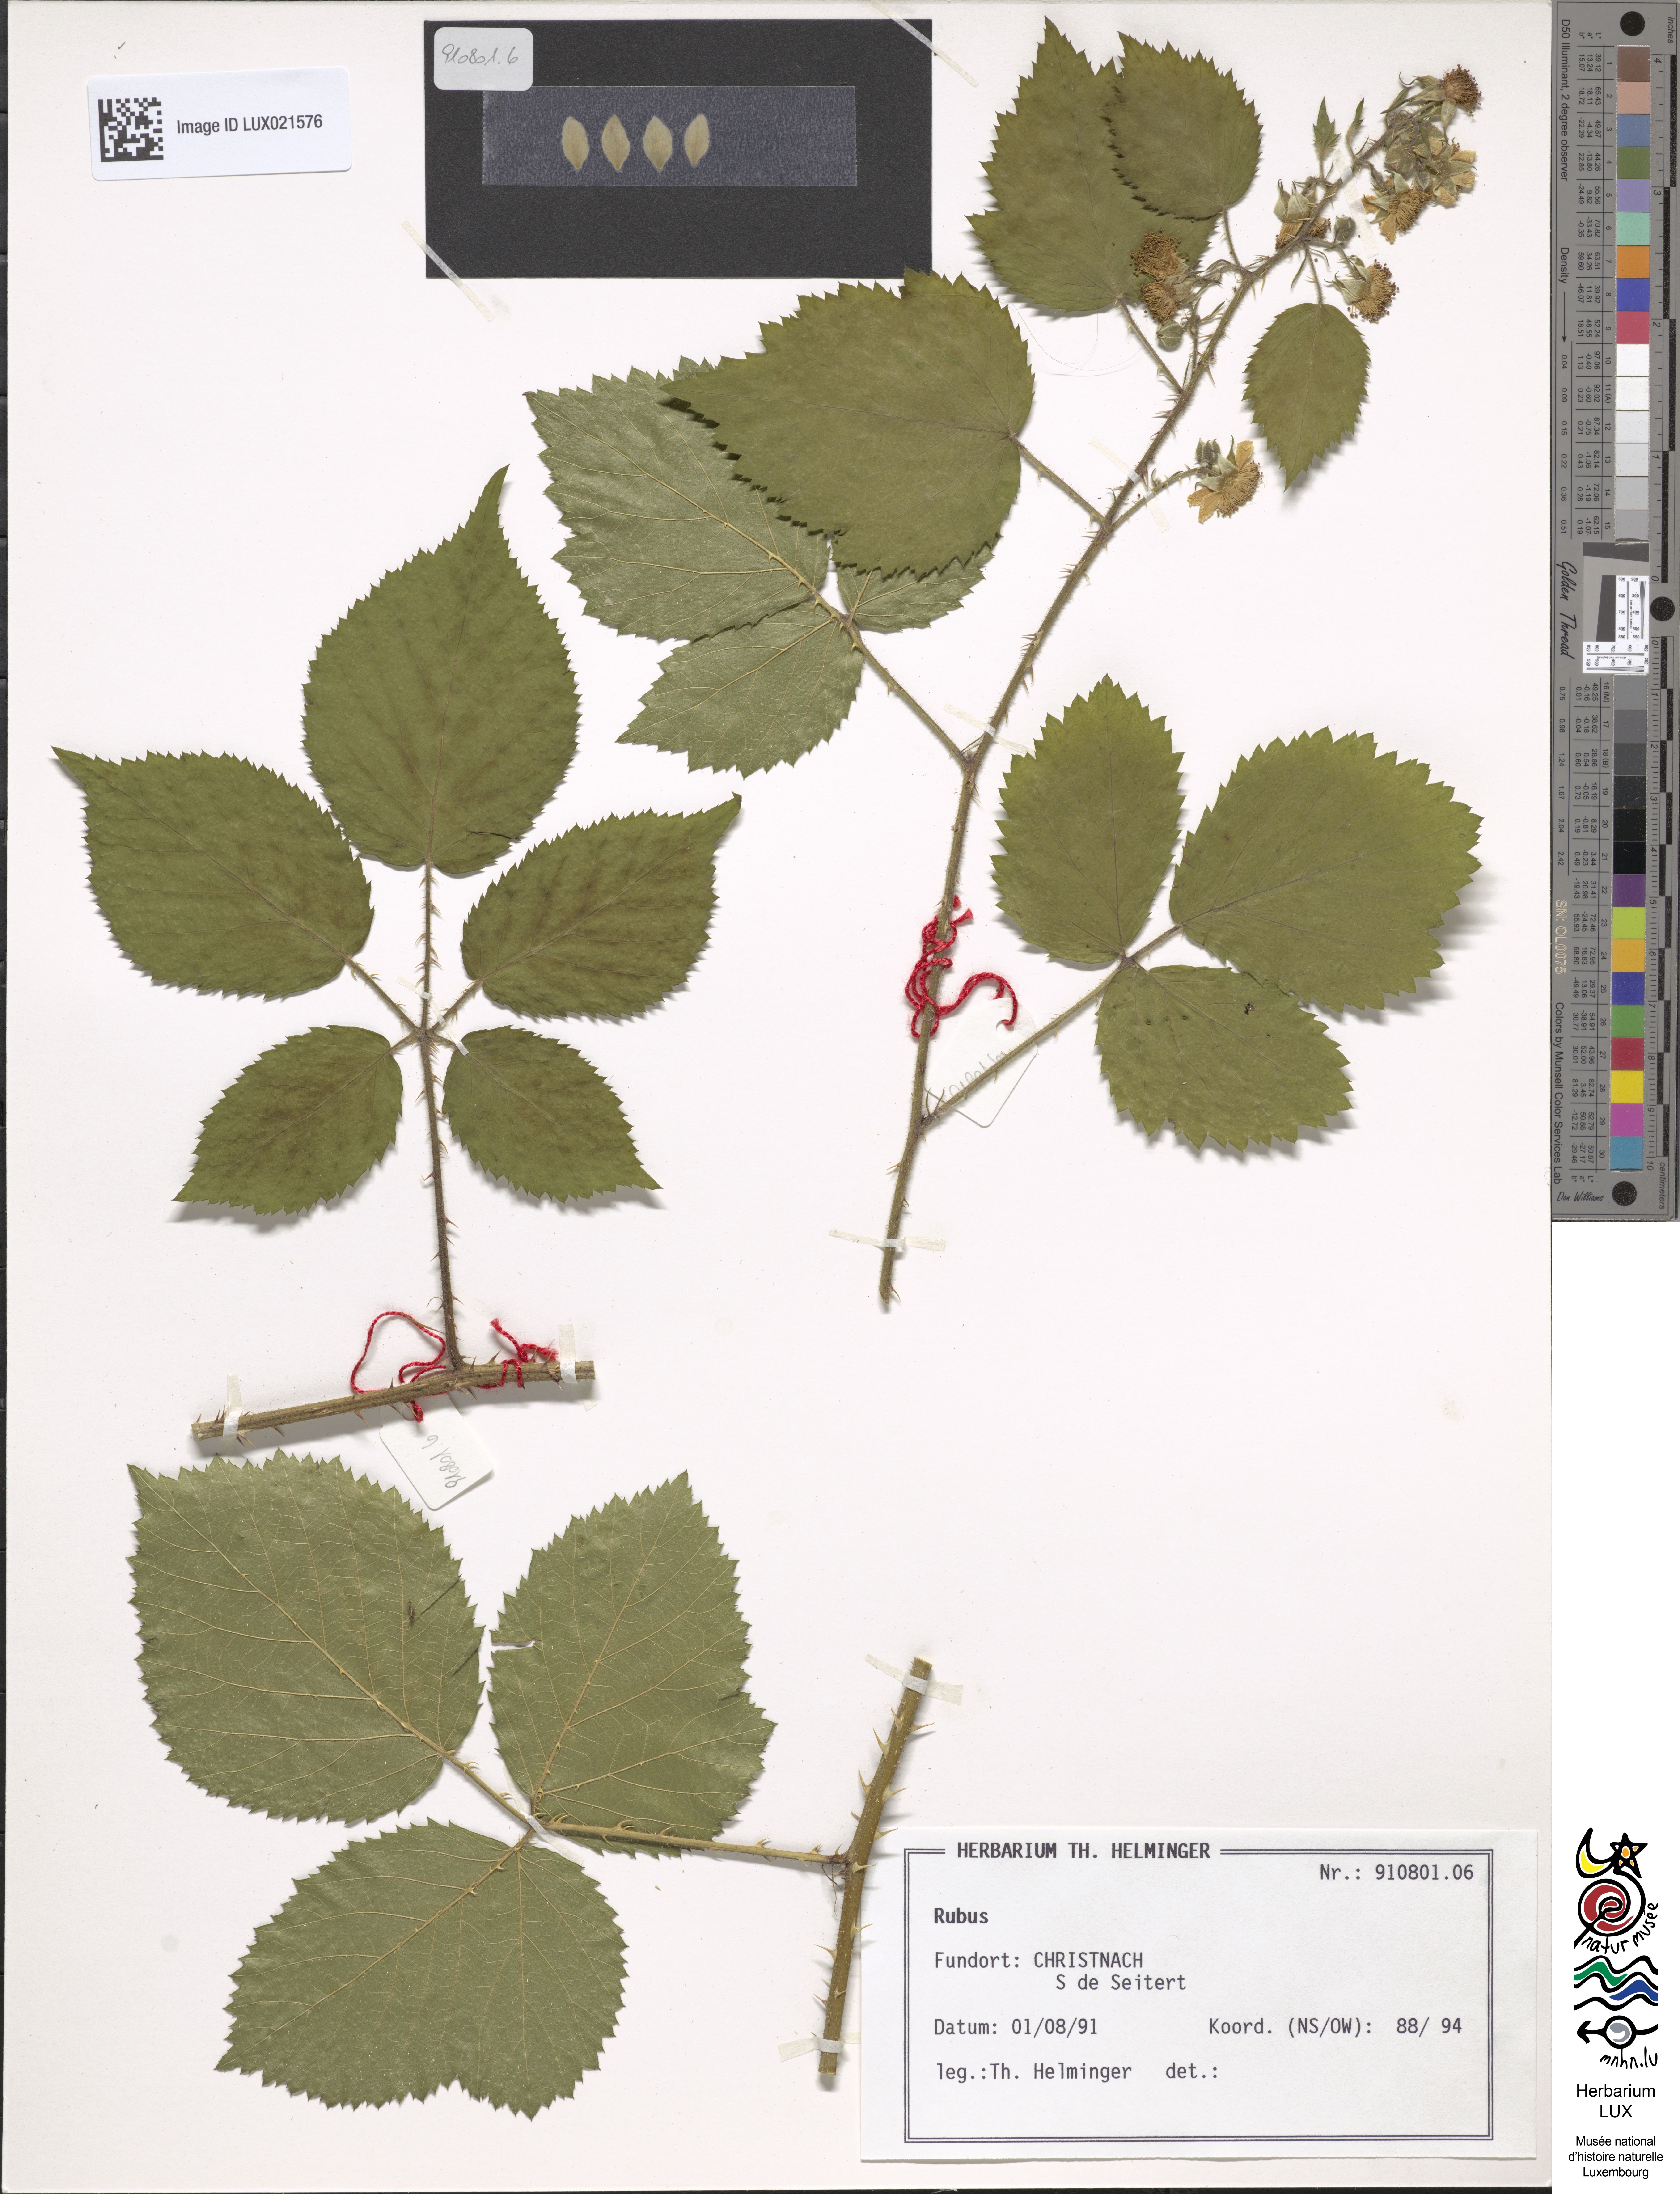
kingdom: Plantae
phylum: Tracheophyta
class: Magnoliopsida
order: Rosales
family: Rosaceae
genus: Rubus
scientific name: Rubus
